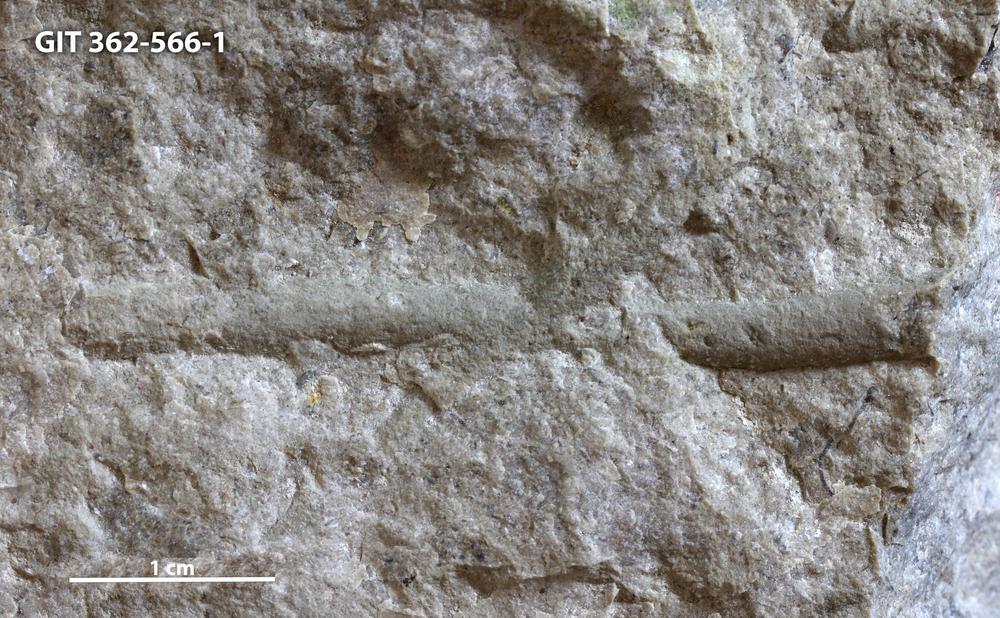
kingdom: Animalia
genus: Palaeophycus
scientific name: Palaeophycus tubularis
